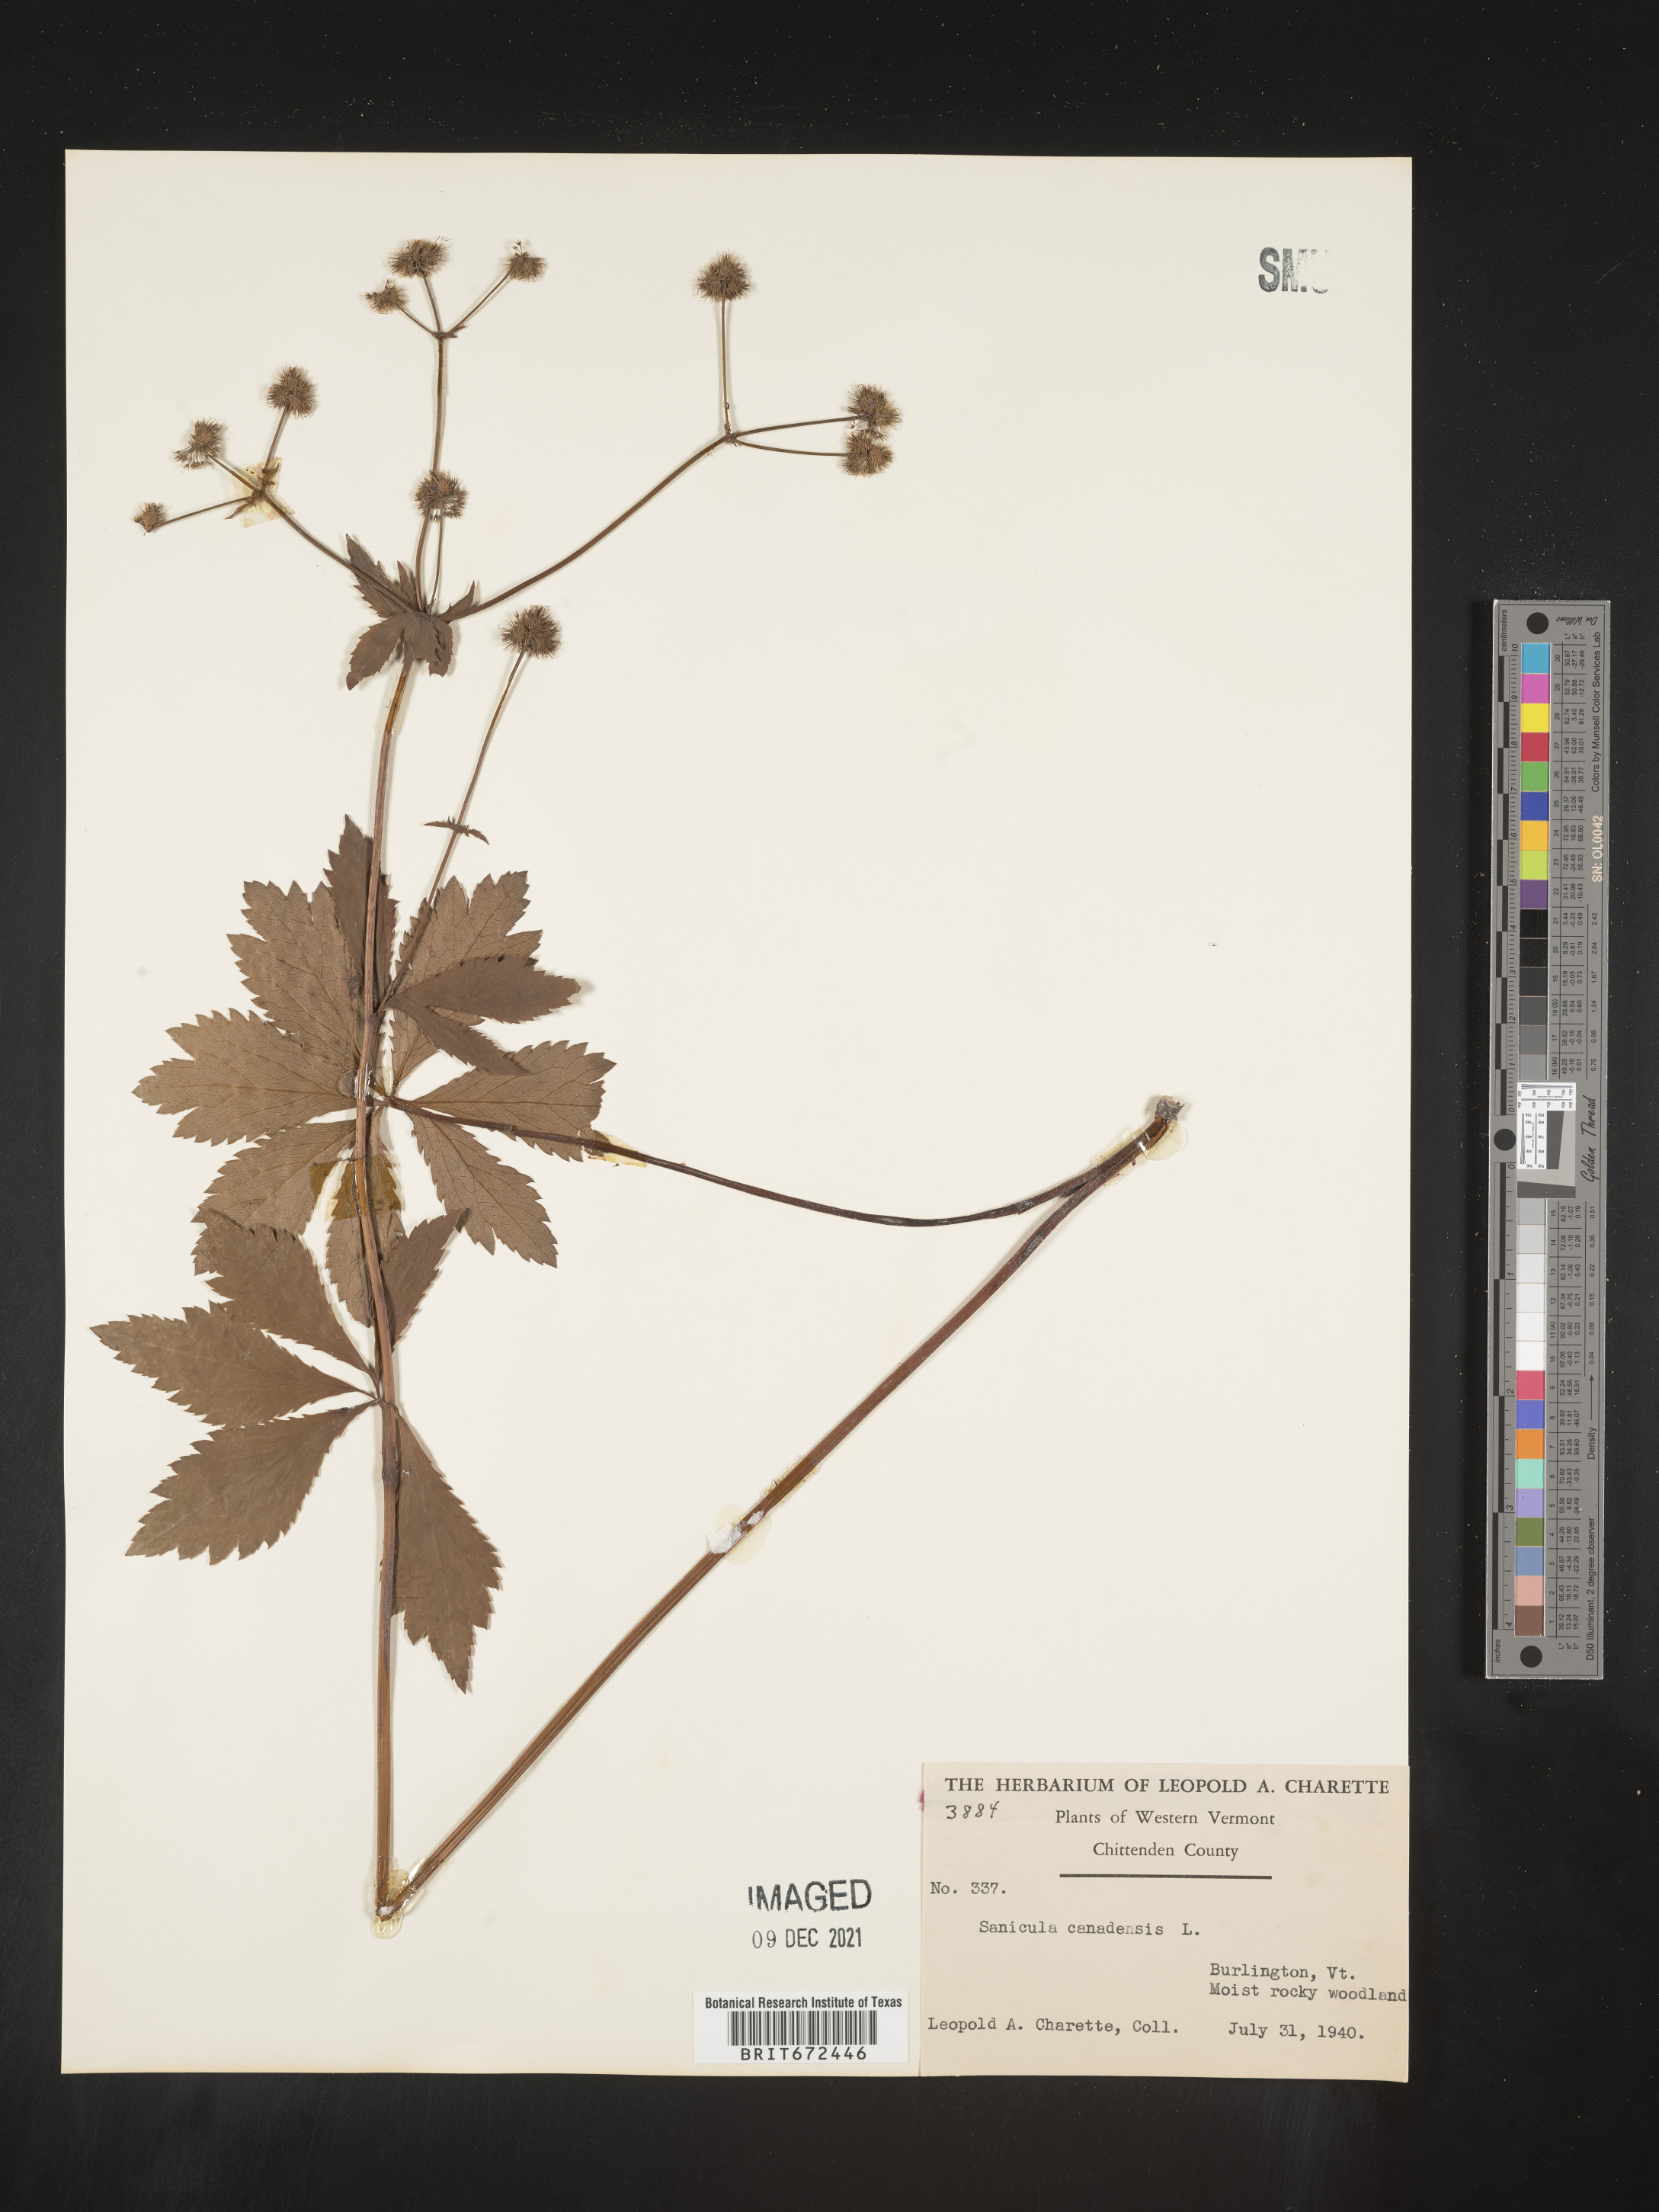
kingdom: Plantae
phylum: Tracheophyta
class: Magnoliopsida
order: Apiales
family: Apiaceae
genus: Sanicula
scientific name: Sanicula canadensis
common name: Canada sanicle
